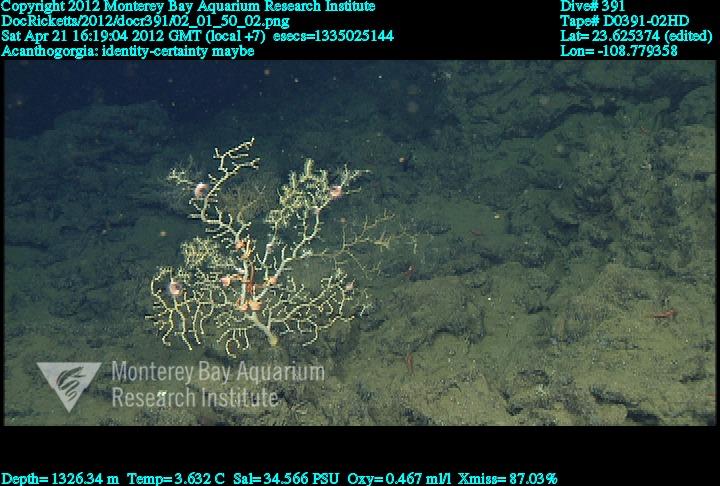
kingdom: Animalia
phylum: Cnidaria
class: Anthozoa
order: Malacalcyonacea
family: Paramuriceidae
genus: Acanthogorgia
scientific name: Acanthogorgia
